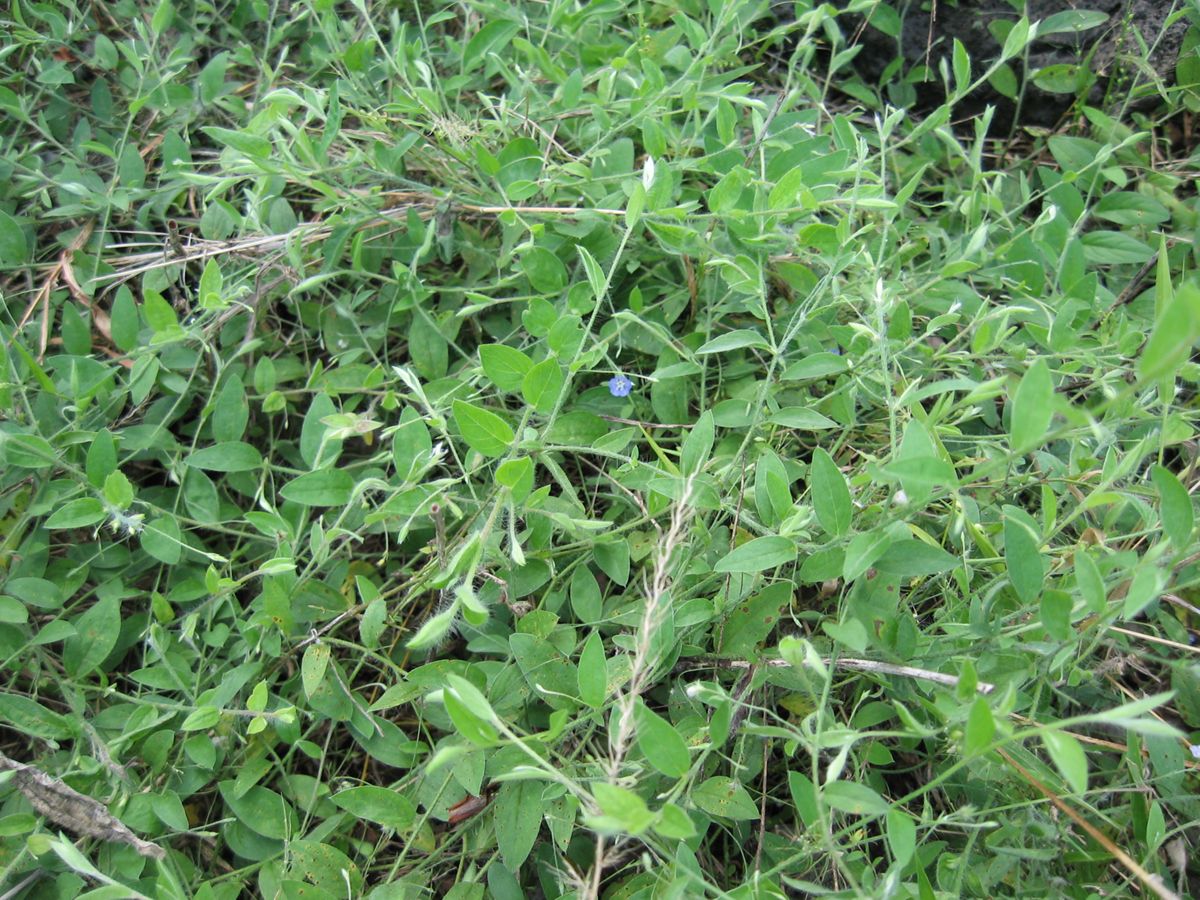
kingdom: Plantae
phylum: Tracheophyta
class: Magnoliopsida
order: Solanales
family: Convolvulaceae
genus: Evolvulus
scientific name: Evolvulus alsinoides
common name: Slender dwarf morning-glory
